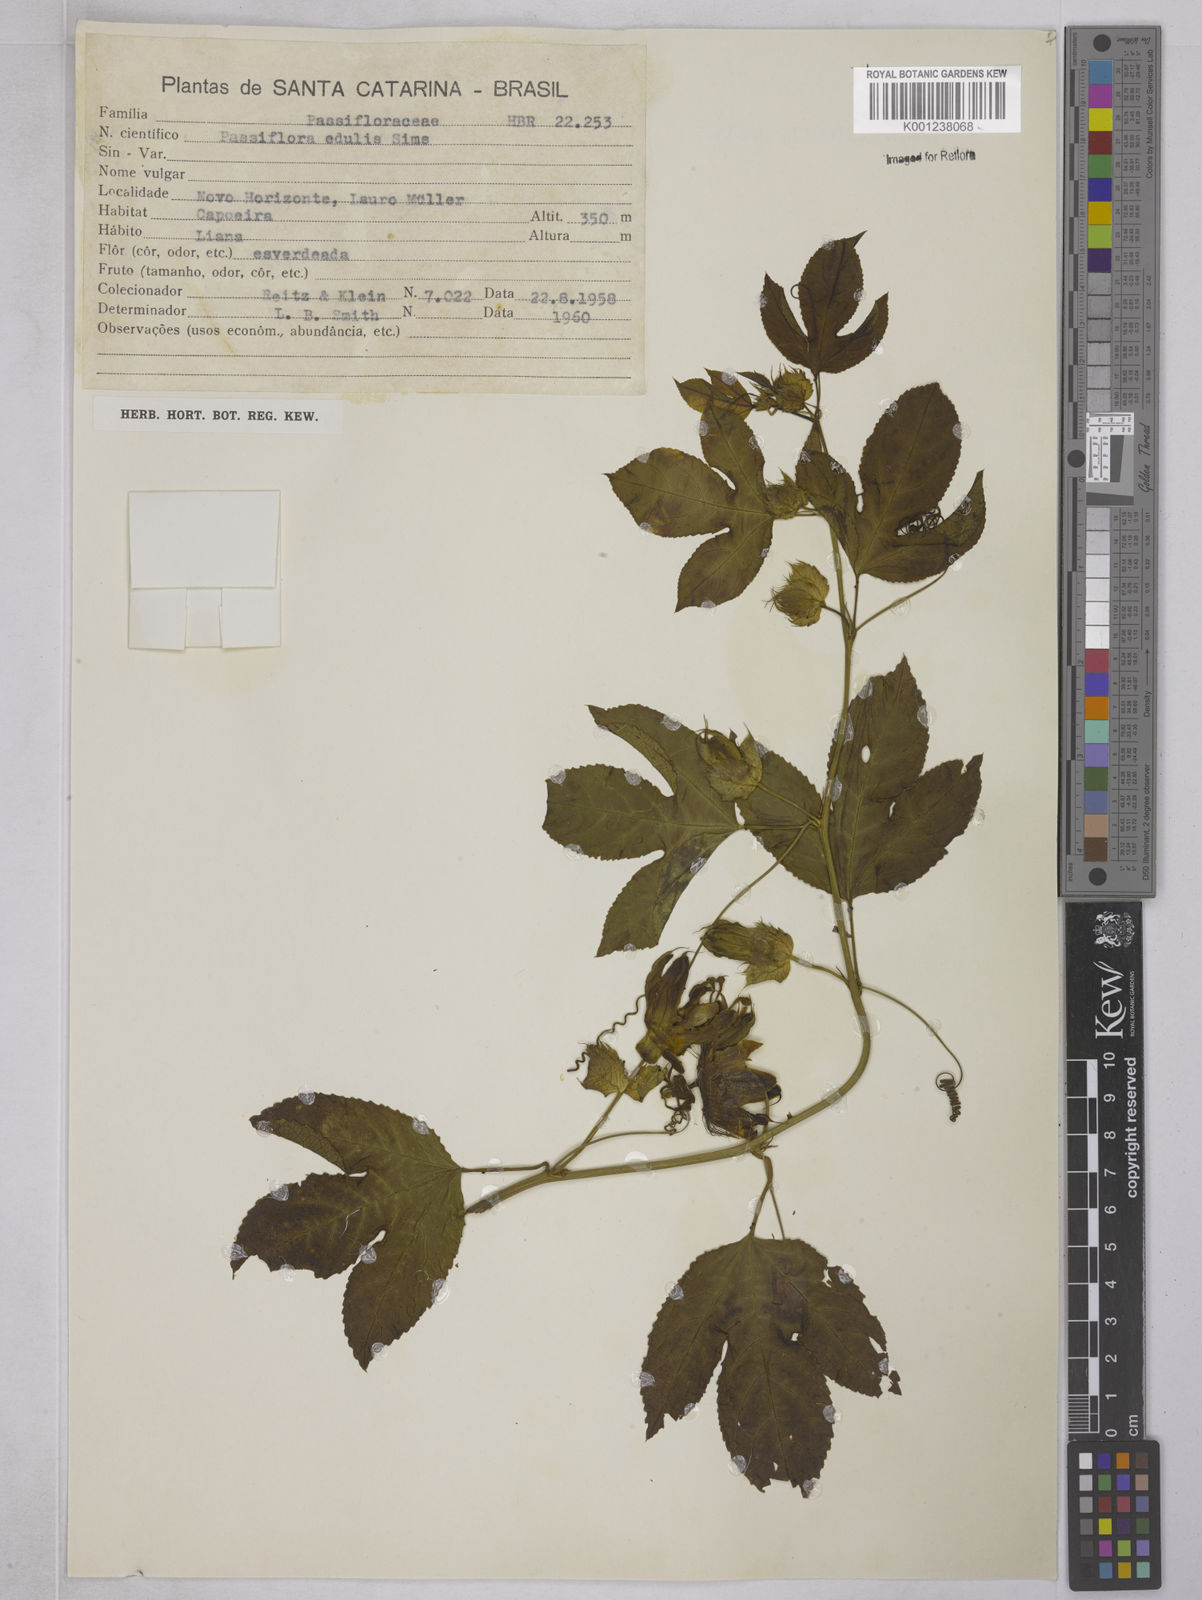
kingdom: Plantae
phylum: Tracheophyta
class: Magnoliopsida
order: Malpighiales
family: Passifloraceae
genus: Passiflora
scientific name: Passiflora edulis
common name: Purple granadilla
